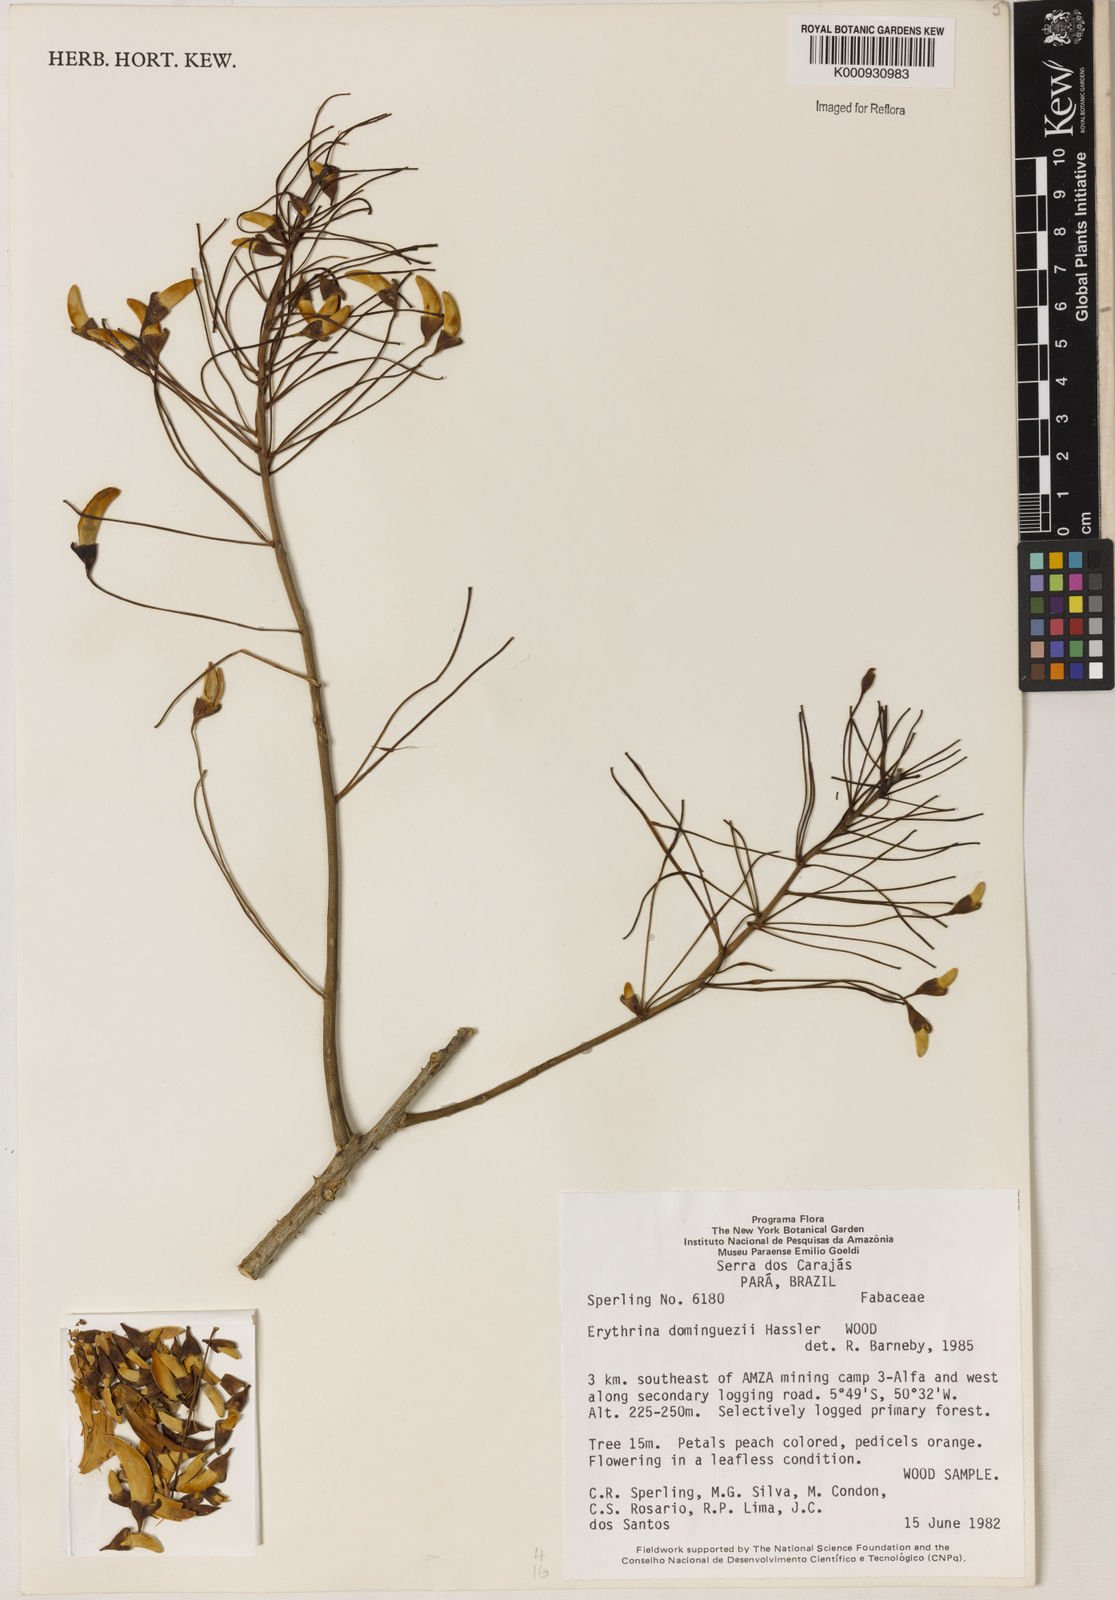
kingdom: Plantae
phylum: Tracheophyta
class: Magnoliopsida
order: Fabales
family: Fabaceae
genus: Erythrina
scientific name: Erythrina mulungu
